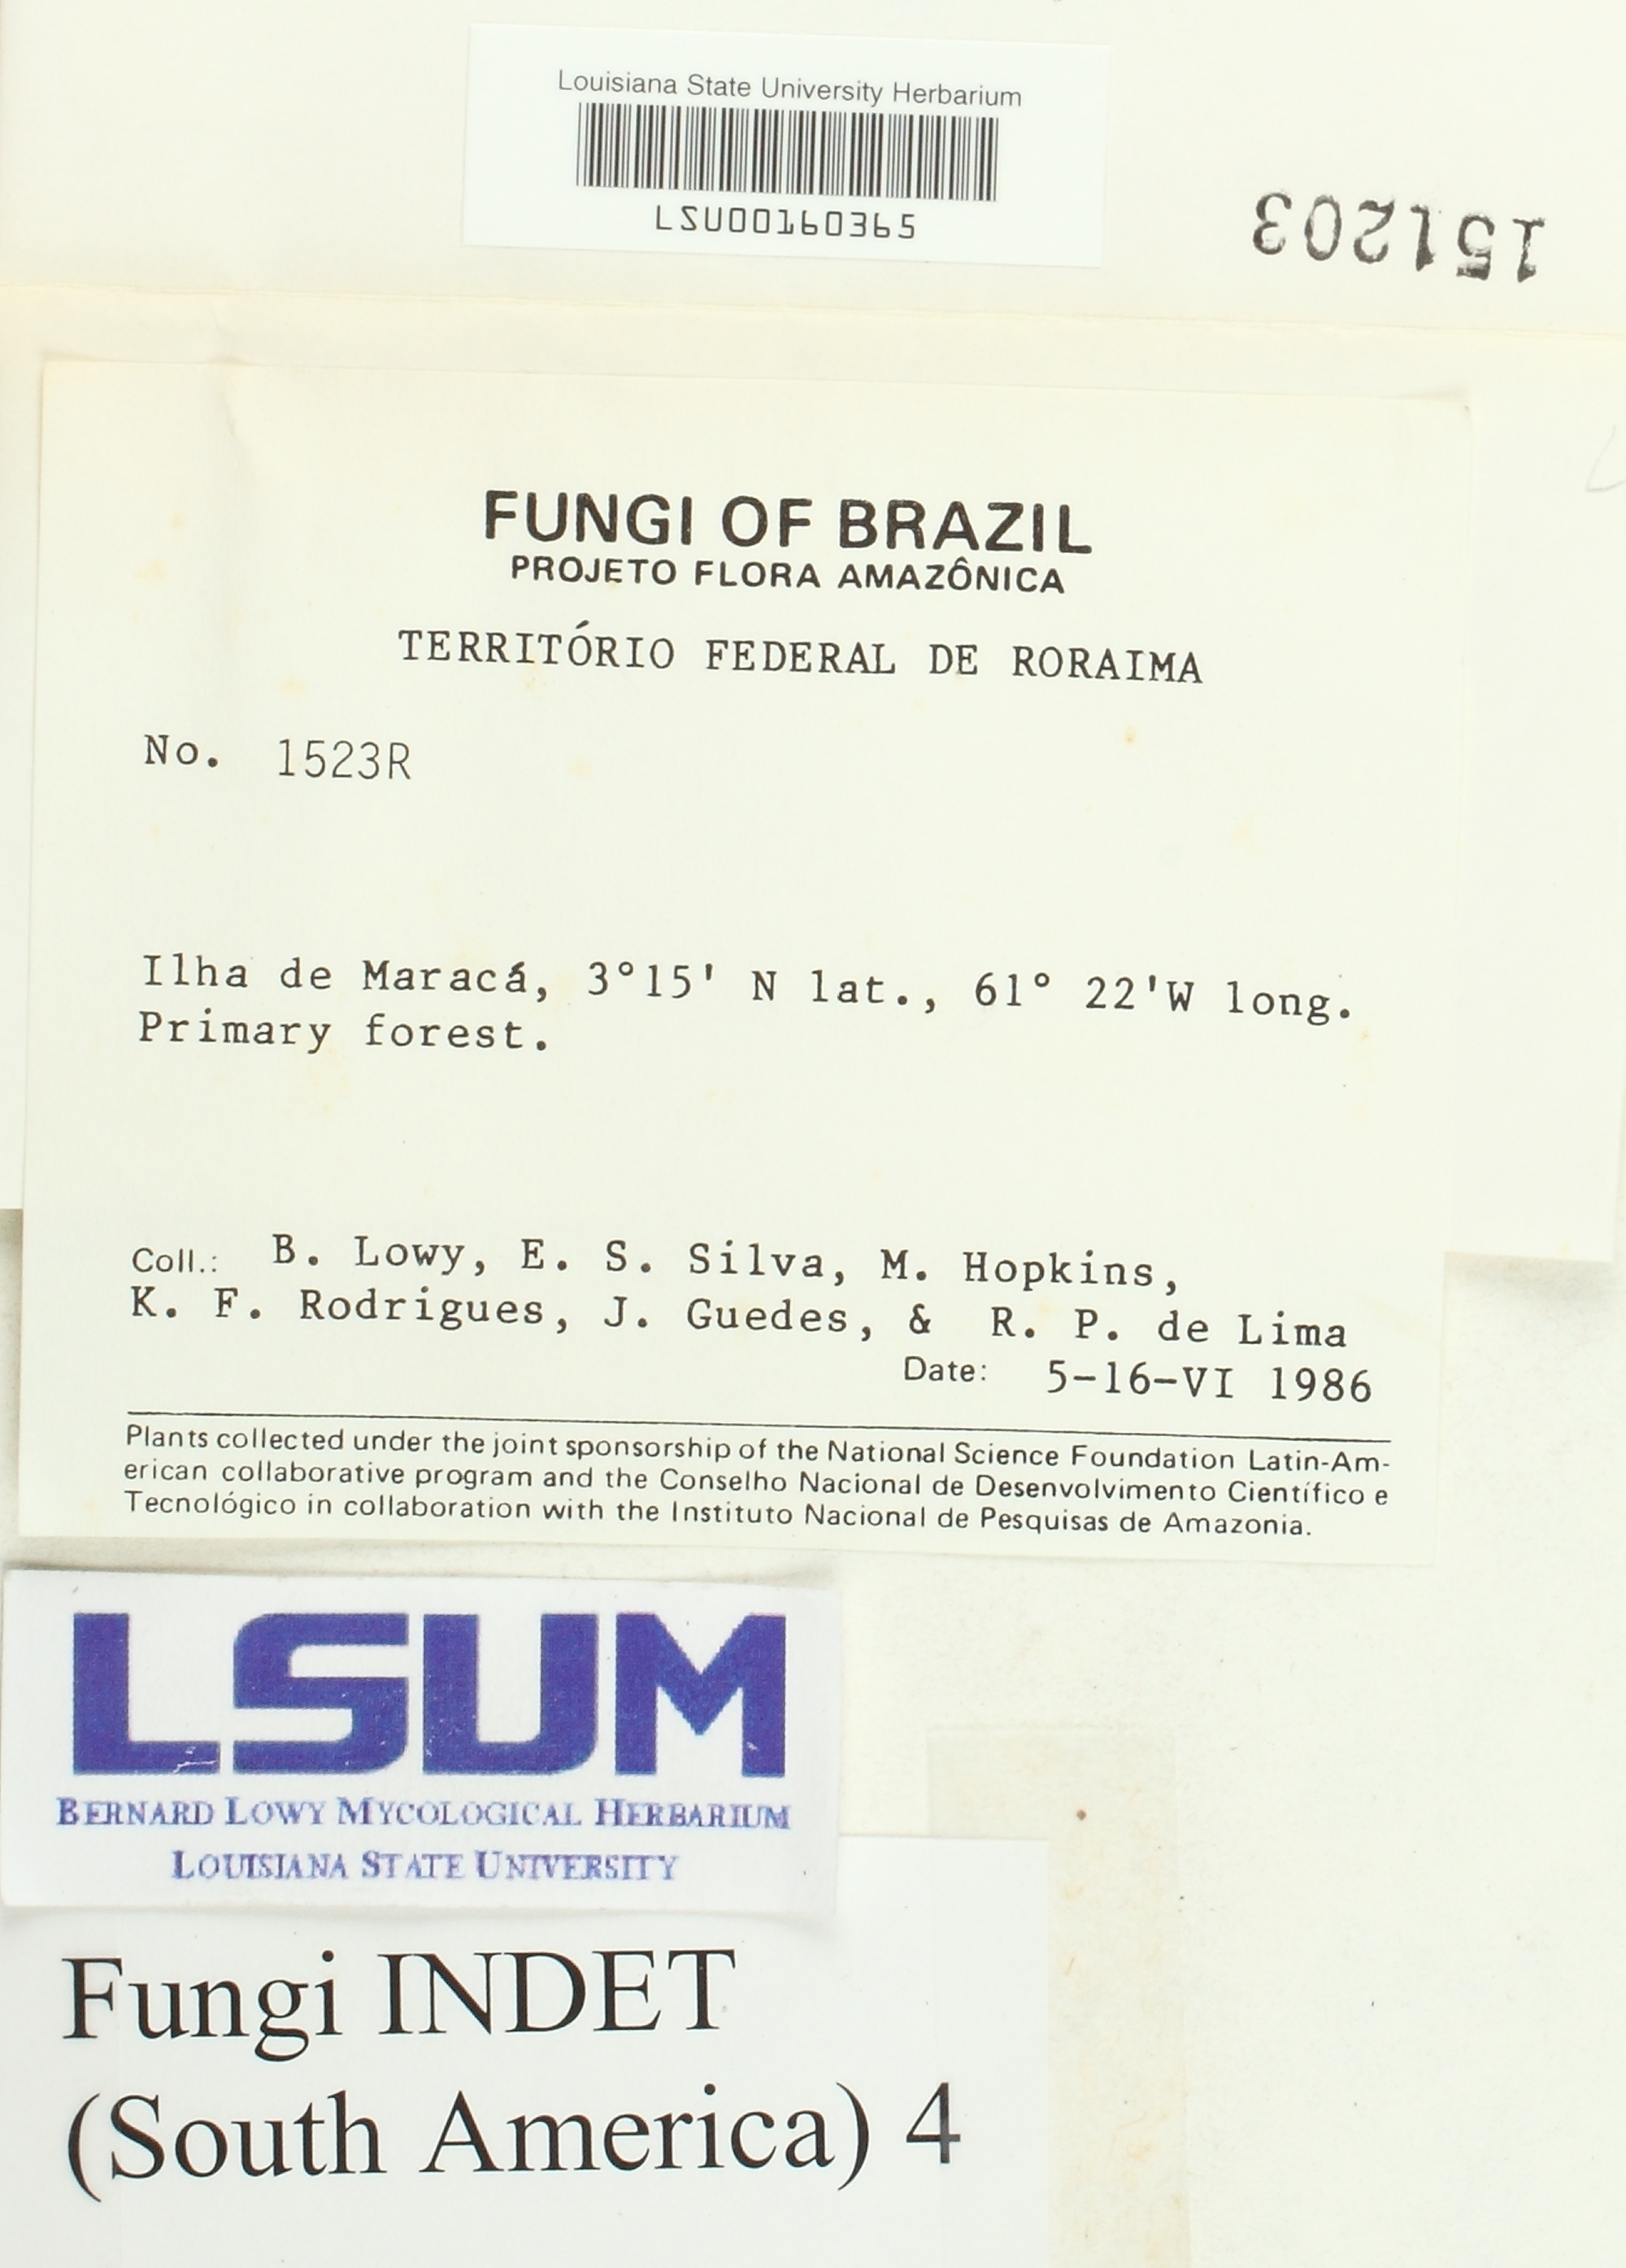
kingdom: Fungi
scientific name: Fungi
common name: Fungi
